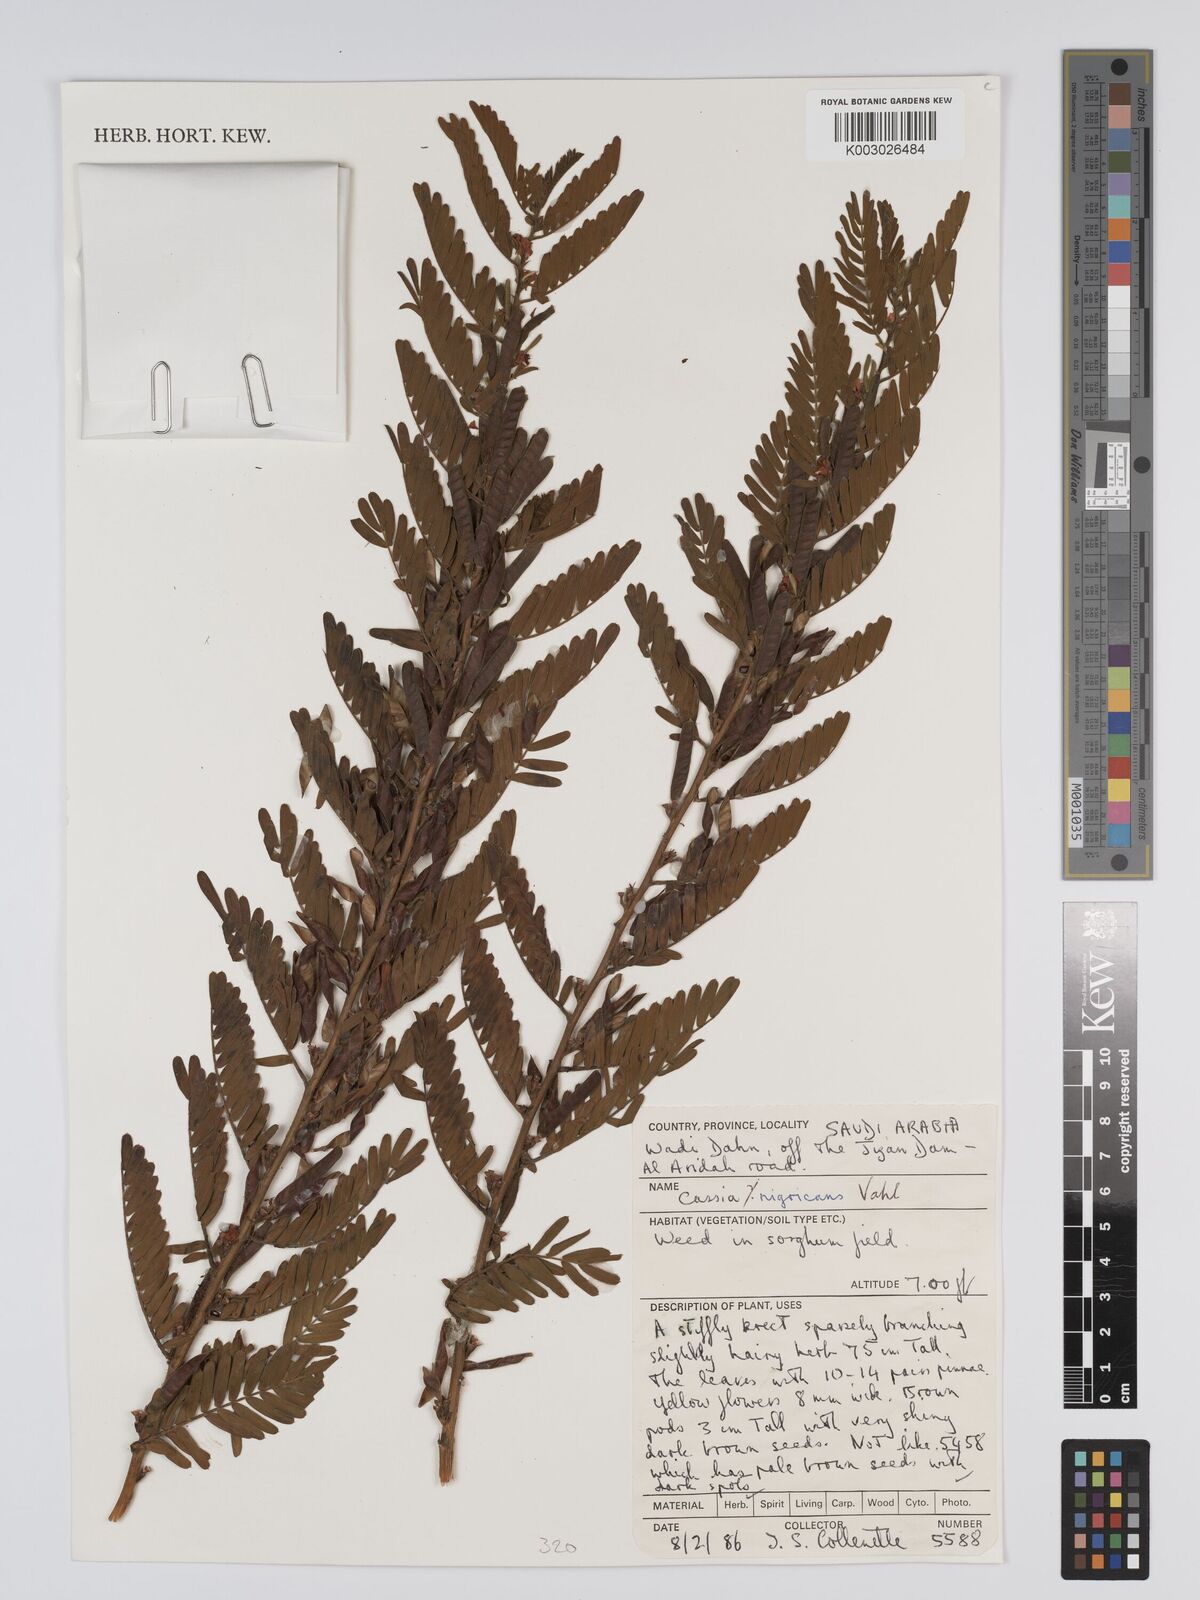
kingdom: Plantae
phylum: Tracheophyta
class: Magnoliopsida
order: Fabales
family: Fabaceae
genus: Chamaecrista
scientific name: Chamaecrista nigricans
